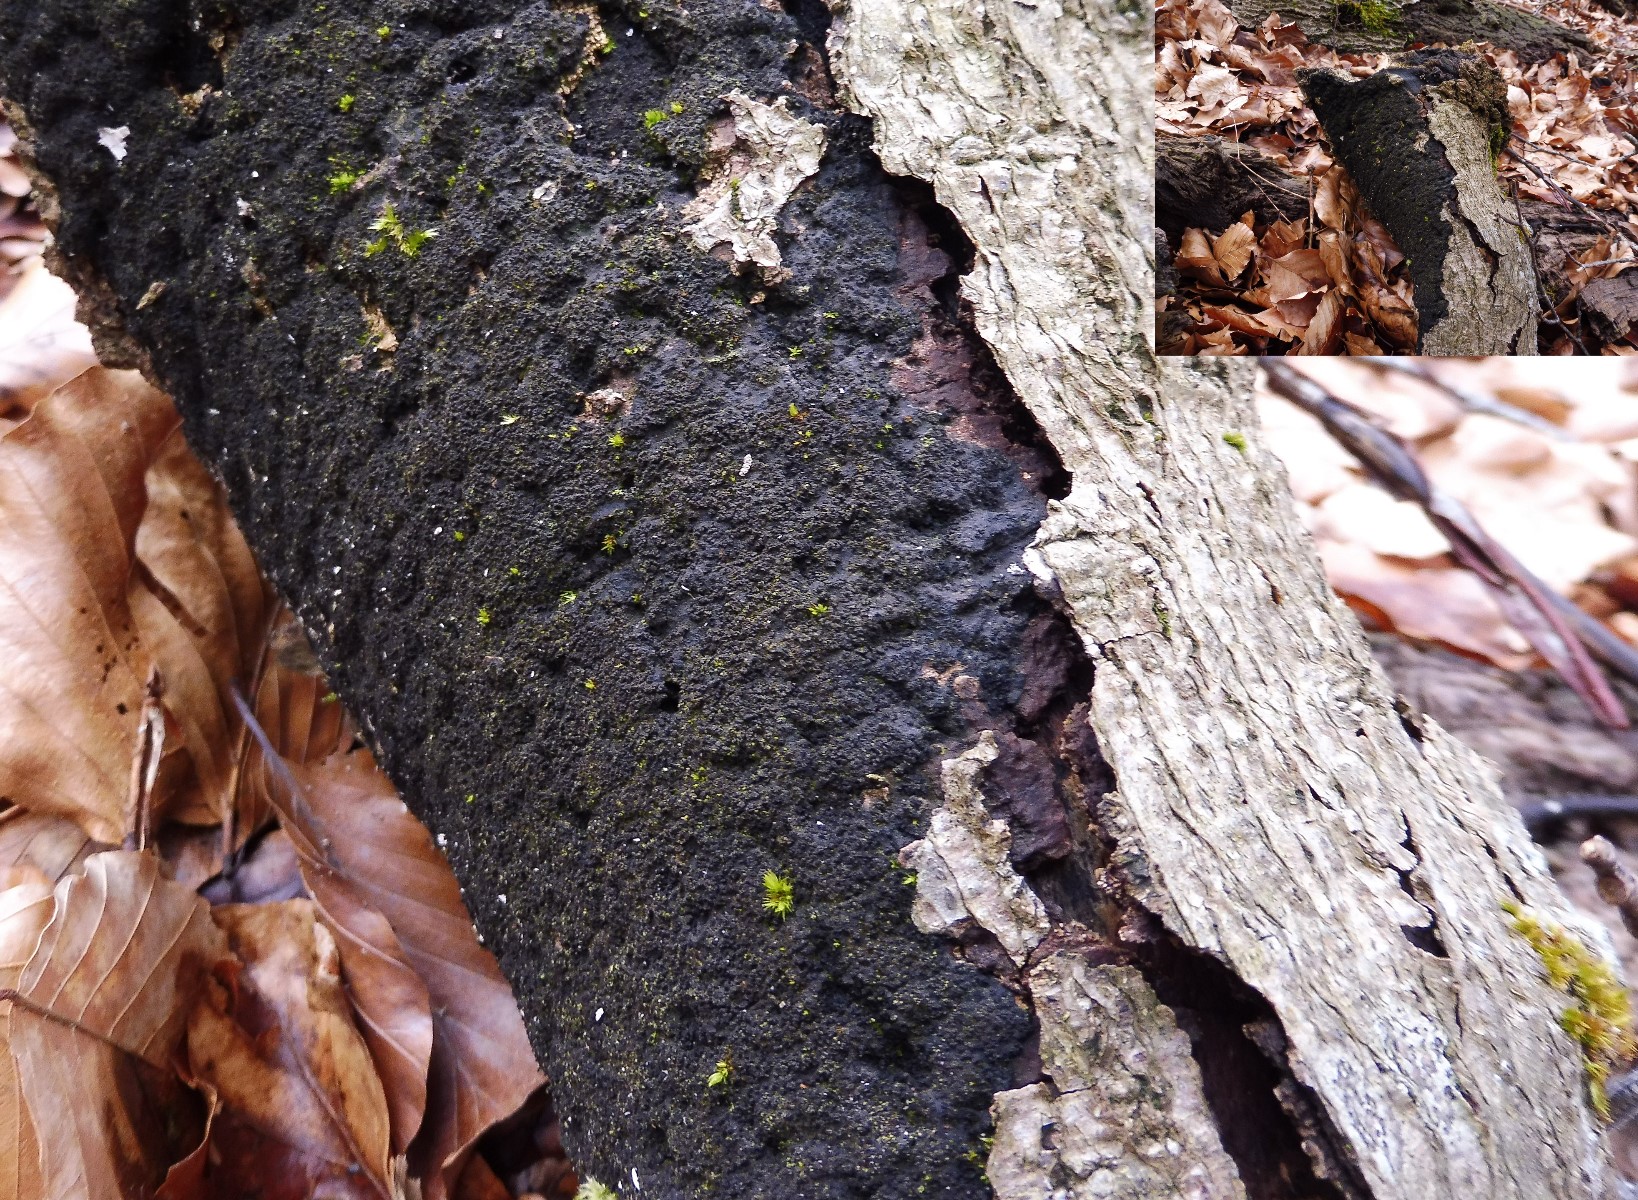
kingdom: Fungi
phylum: Ascomycota
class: Sordariomycetes
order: Xylariales
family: Diatrypaceae
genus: Eutypa
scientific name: Eutypa spinosa
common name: grov kulskorpe
